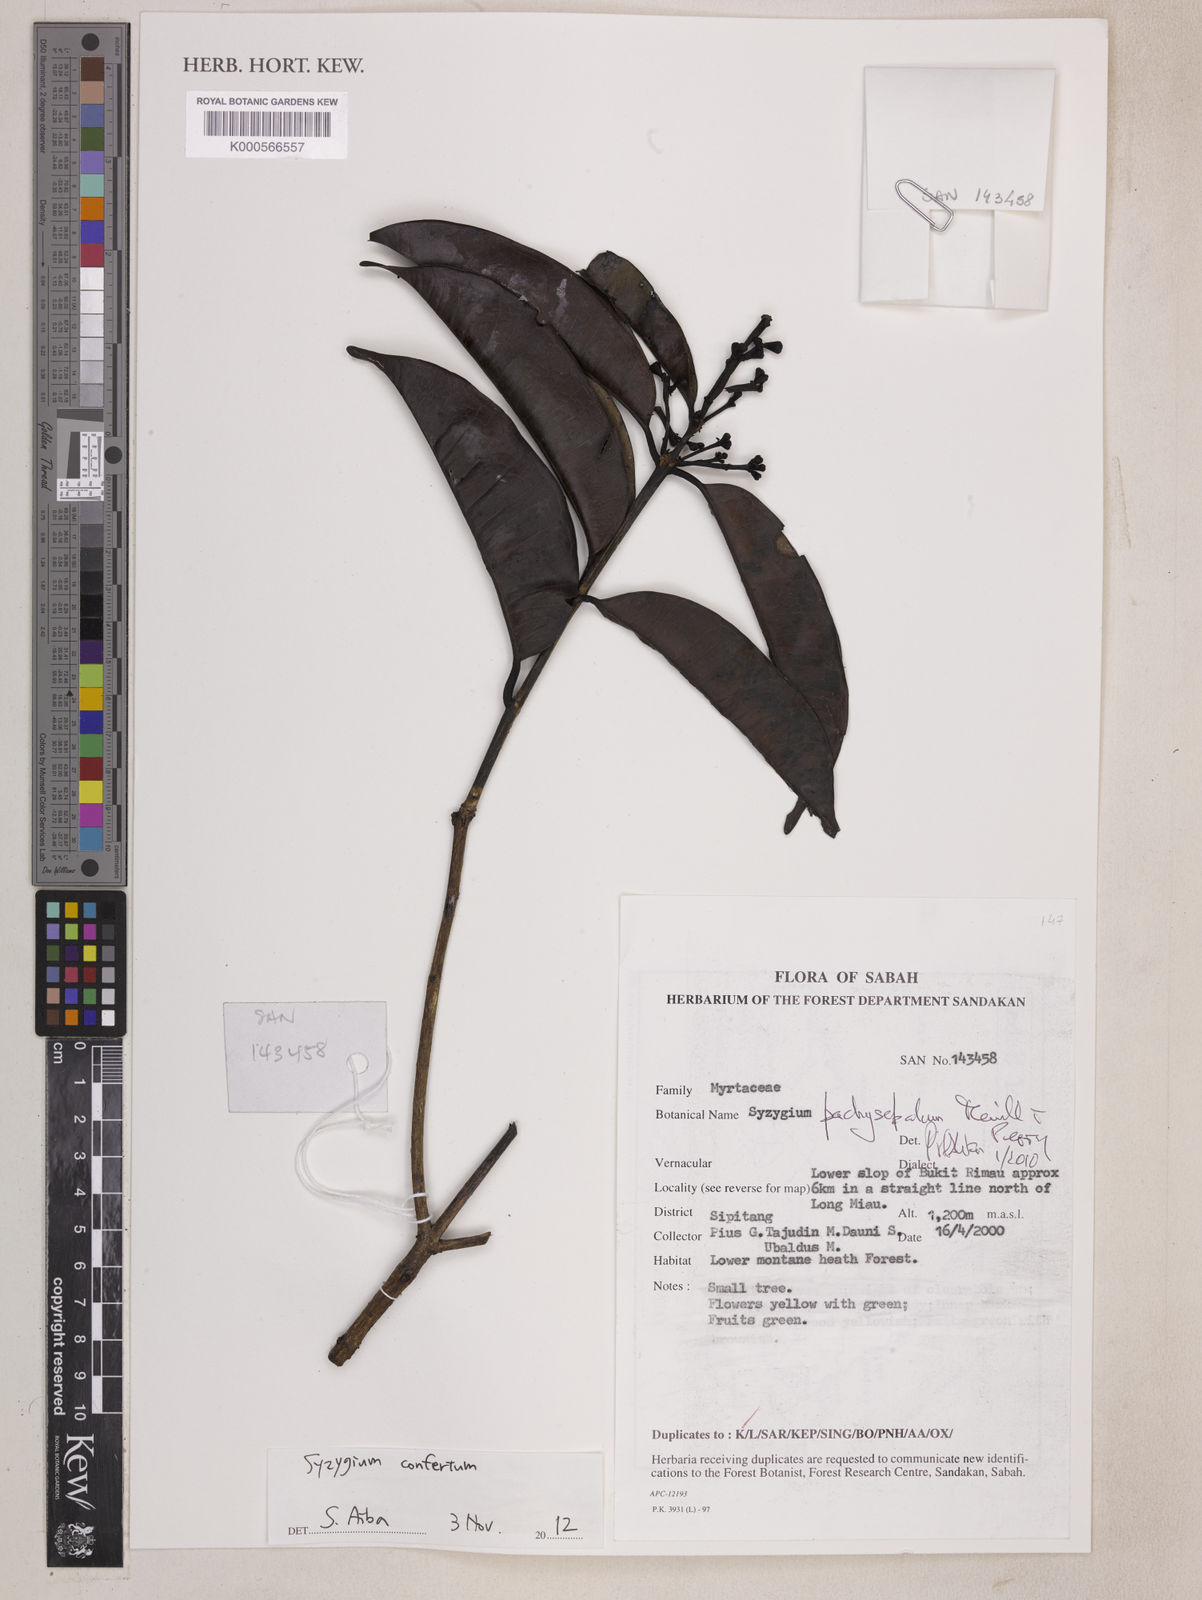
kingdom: Plantae
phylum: Tracheophyta
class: Magnoliopsida
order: Myrtales
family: Myrtaceae
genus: Syzygium
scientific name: Syzygium pachysepalum
